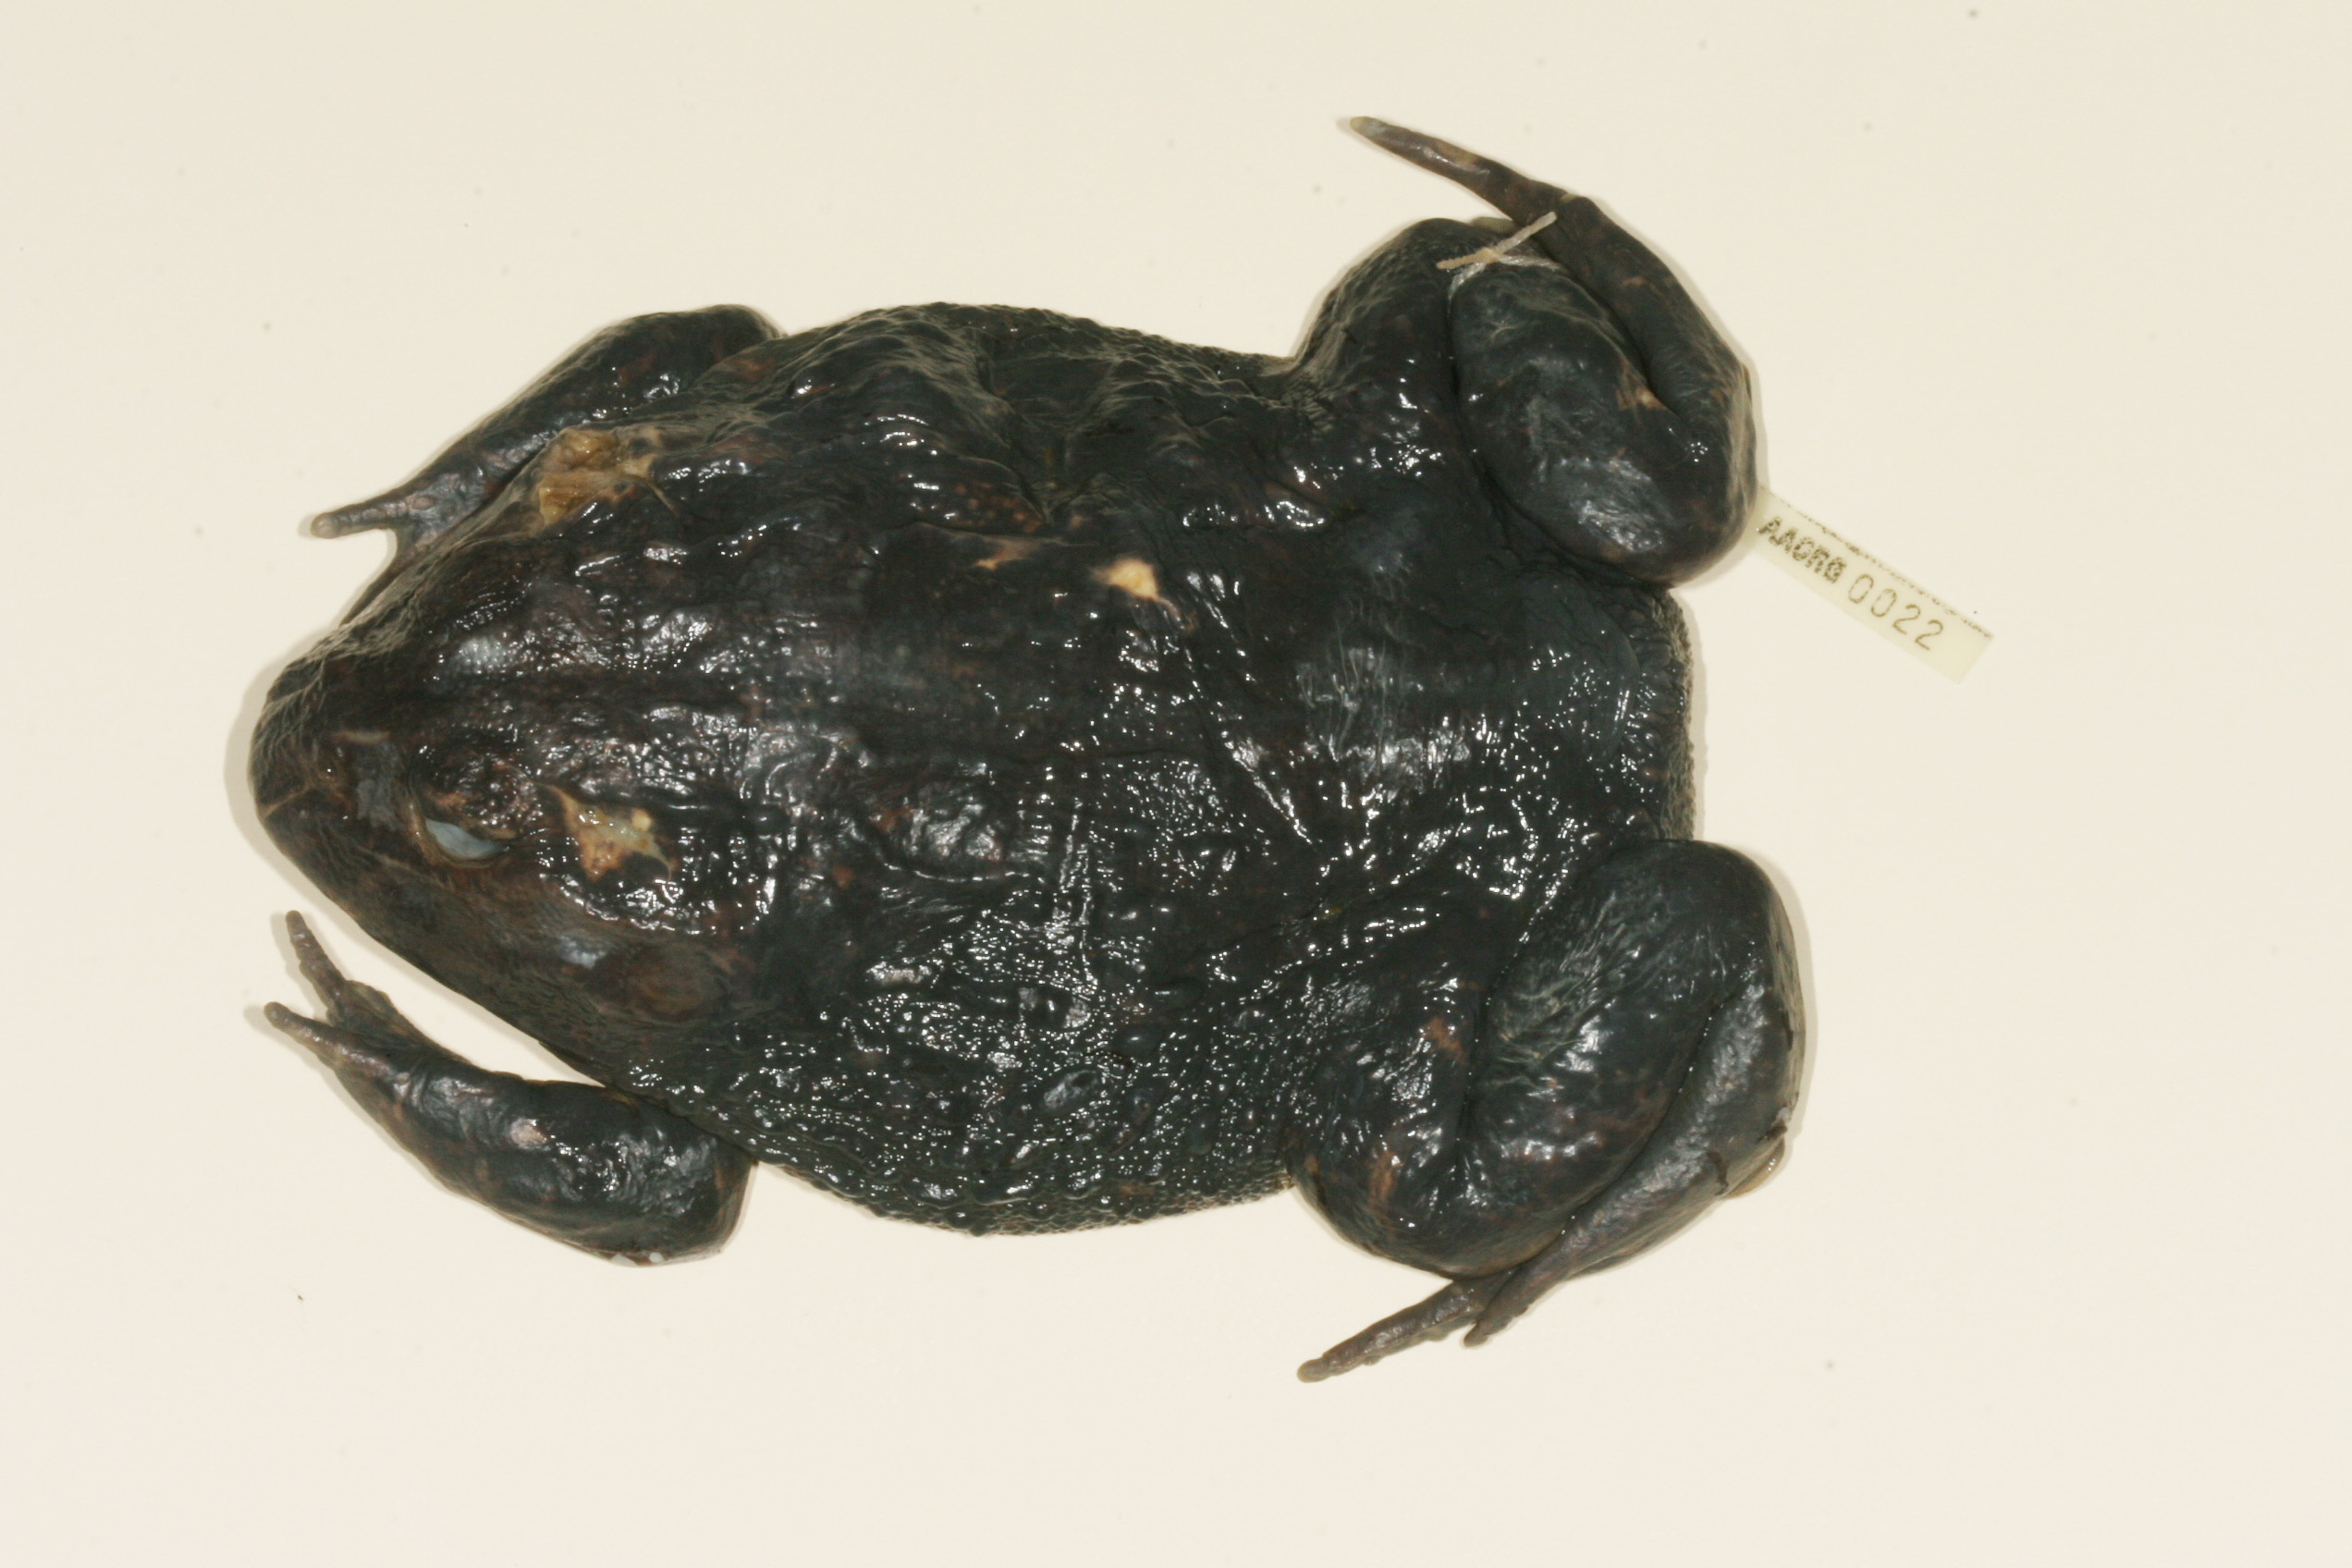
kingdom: Animalia
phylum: Chordata
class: Amphibia
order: Anura
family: Pyxicephalidae
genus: Pyxicephalus
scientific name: Pyxicephalus adspersus
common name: African bullfrog
